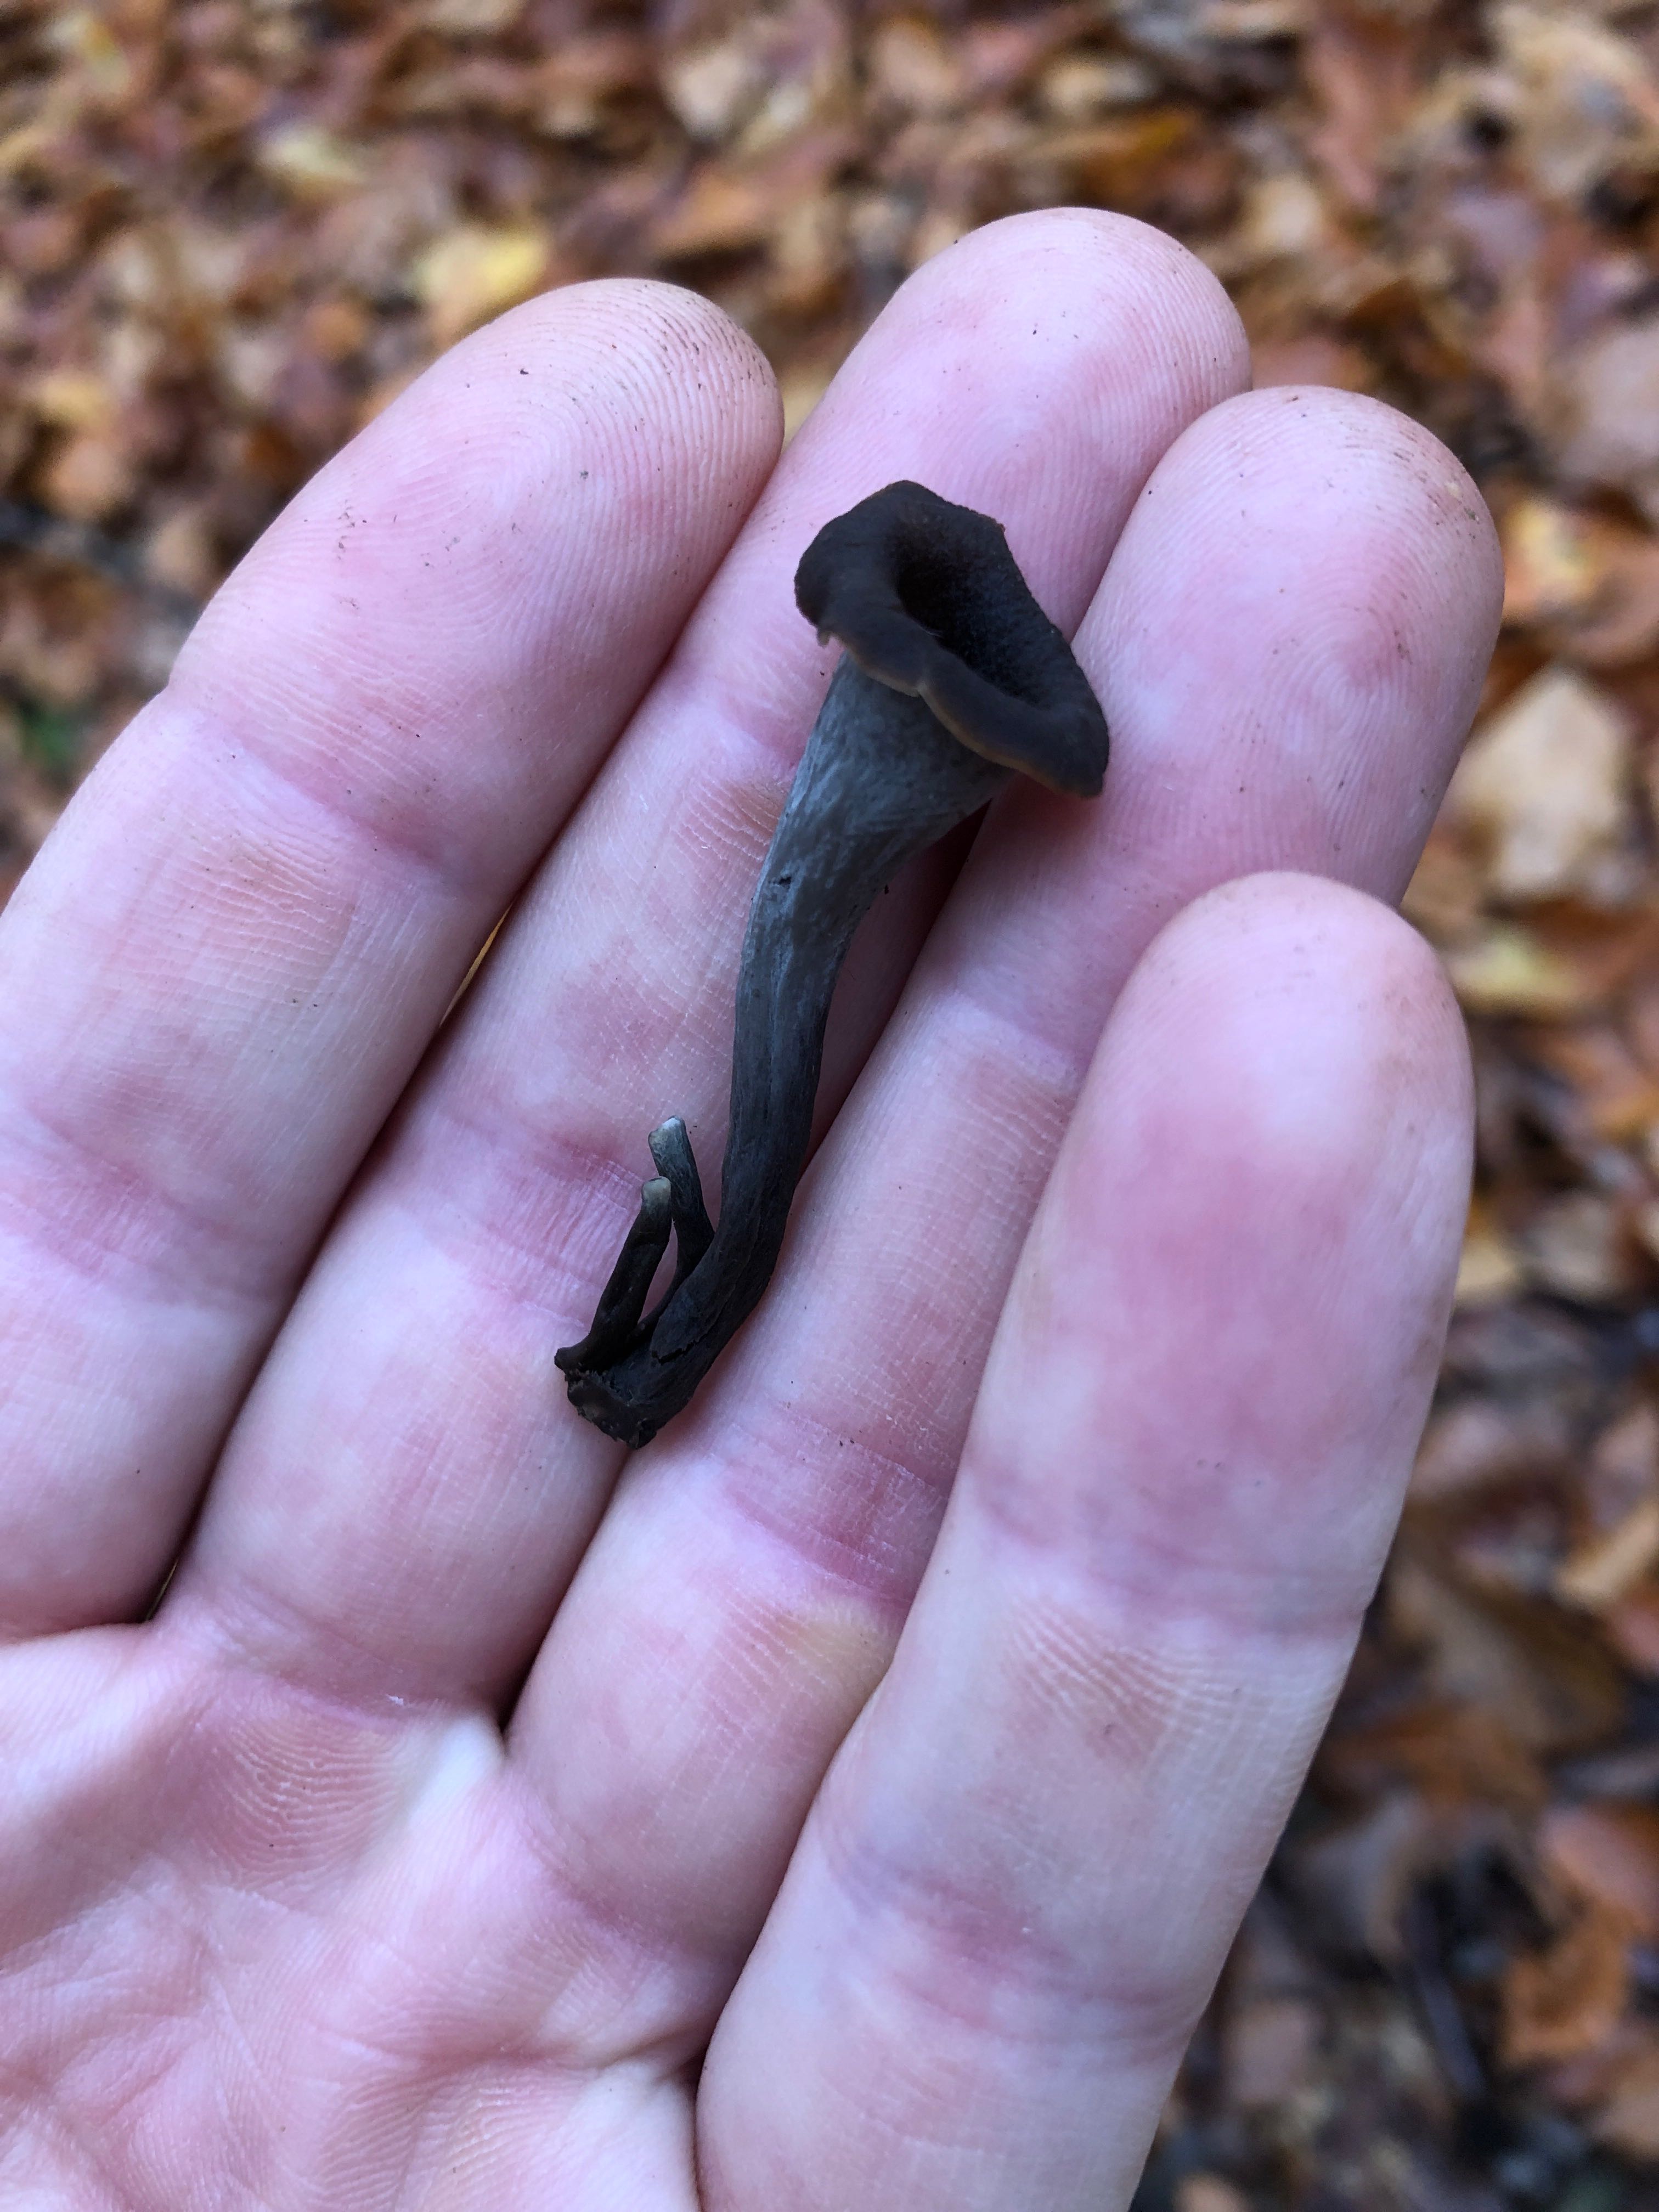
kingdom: Fungi
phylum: Basidiomycota
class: Agaricomycetes
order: Cantharellales
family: Hydnaceae
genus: Craterellus
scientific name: Craterellus cornucopioides
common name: trompetsvamp
